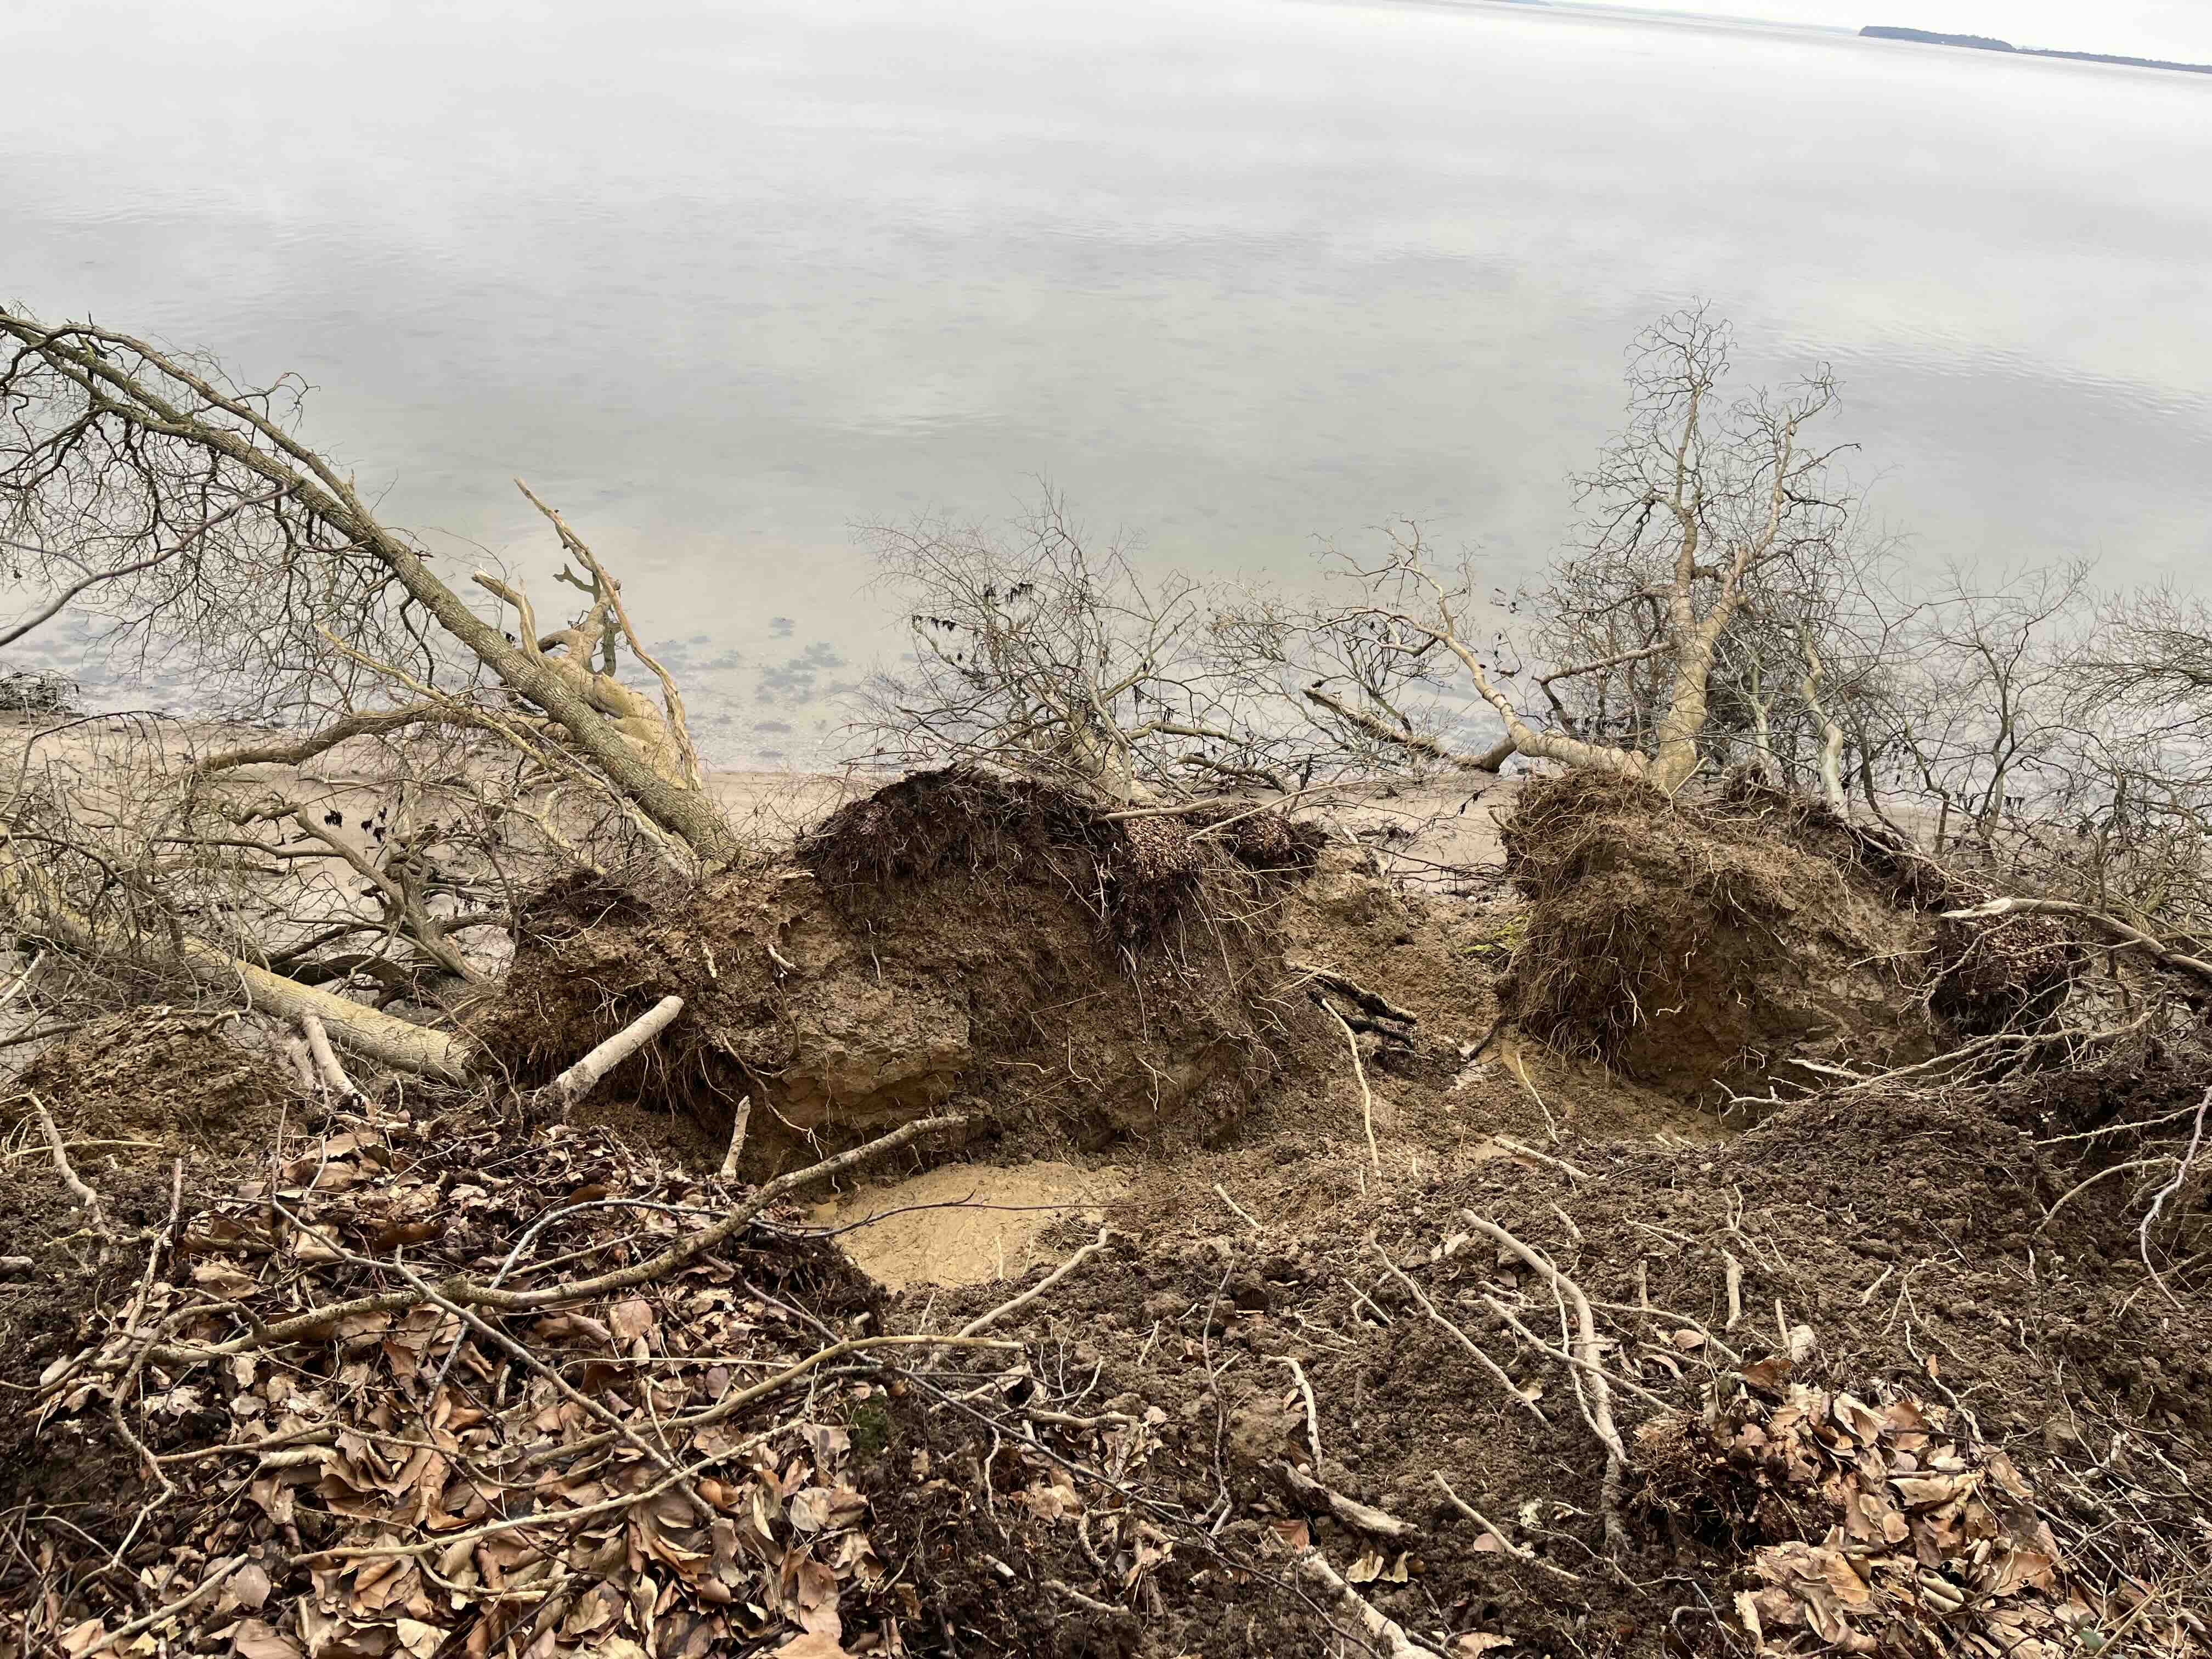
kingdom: Fungi
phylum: Ascomycota
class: Sordariomycetes
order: Xylariales
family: Hypoxylaceae
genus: Daldinia
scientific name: Daldinia concentrica
